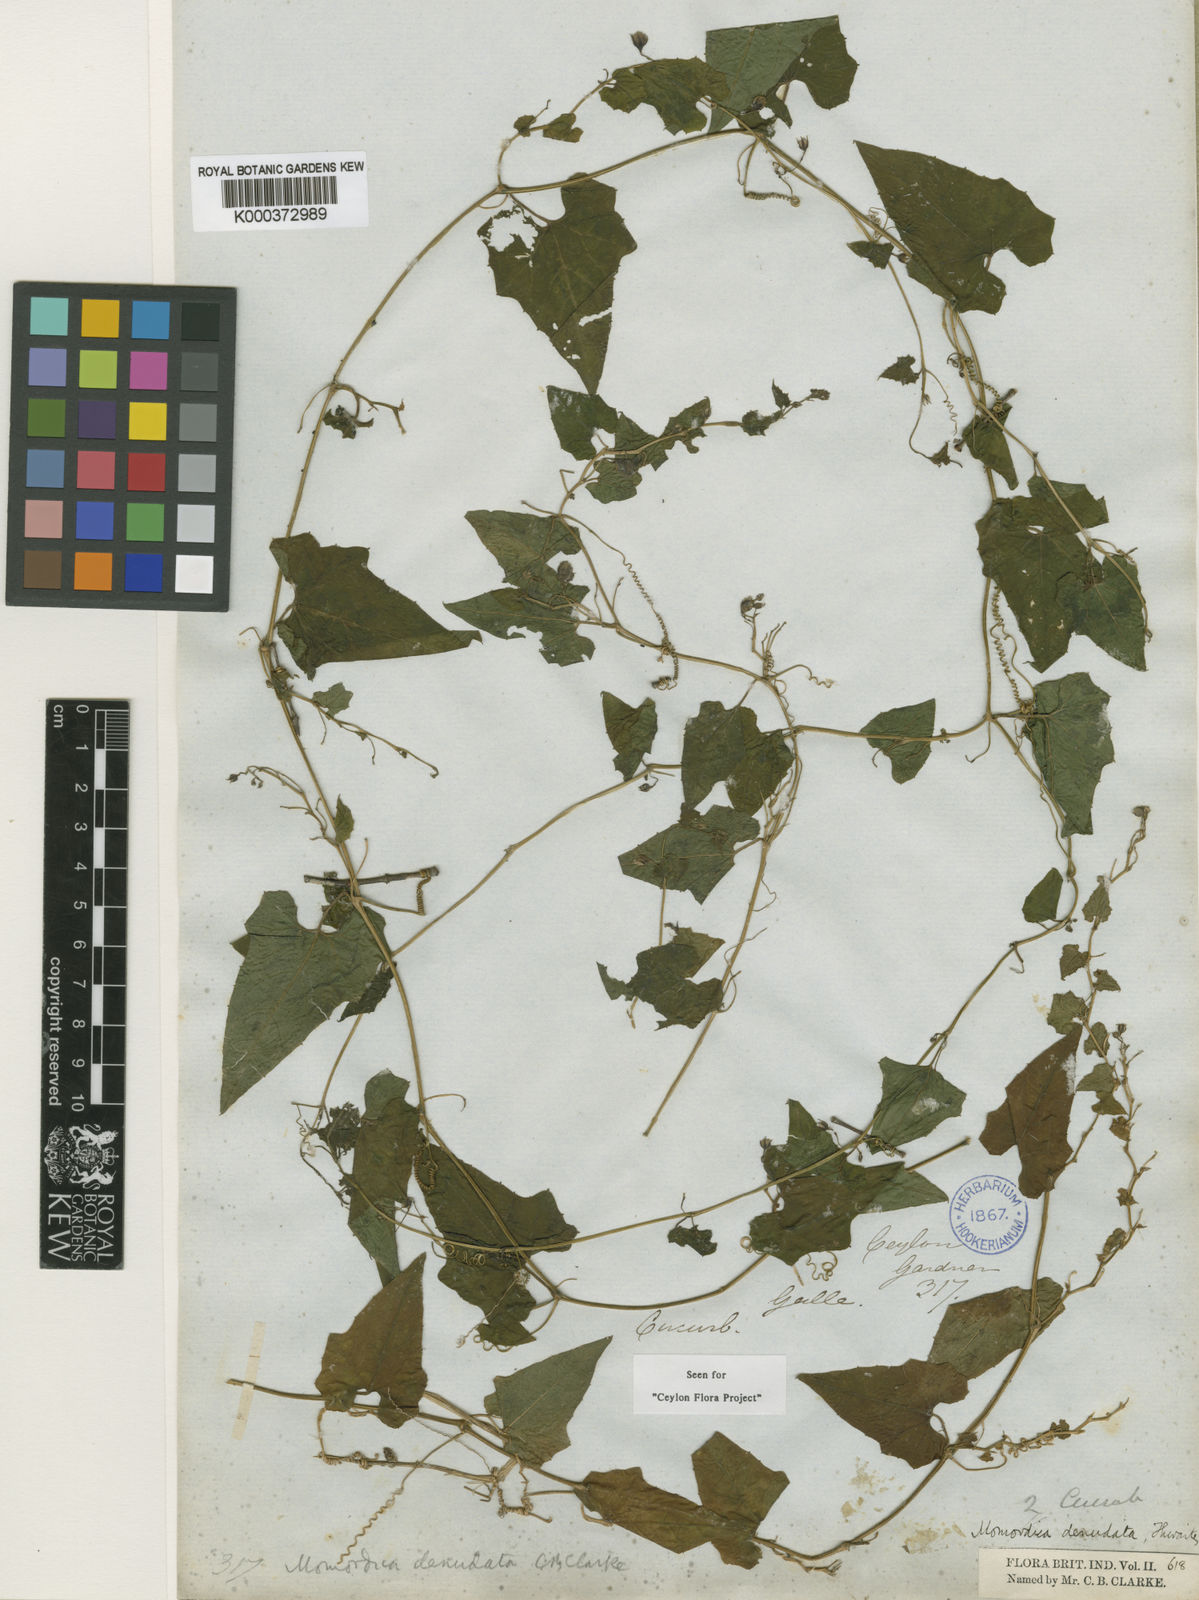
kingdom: Plantae
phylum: Tracheophyta
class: Magnoliopsida
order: Cucurbitales
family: Cucurbitaceae
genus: Momordica
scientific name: Momordica denudata
